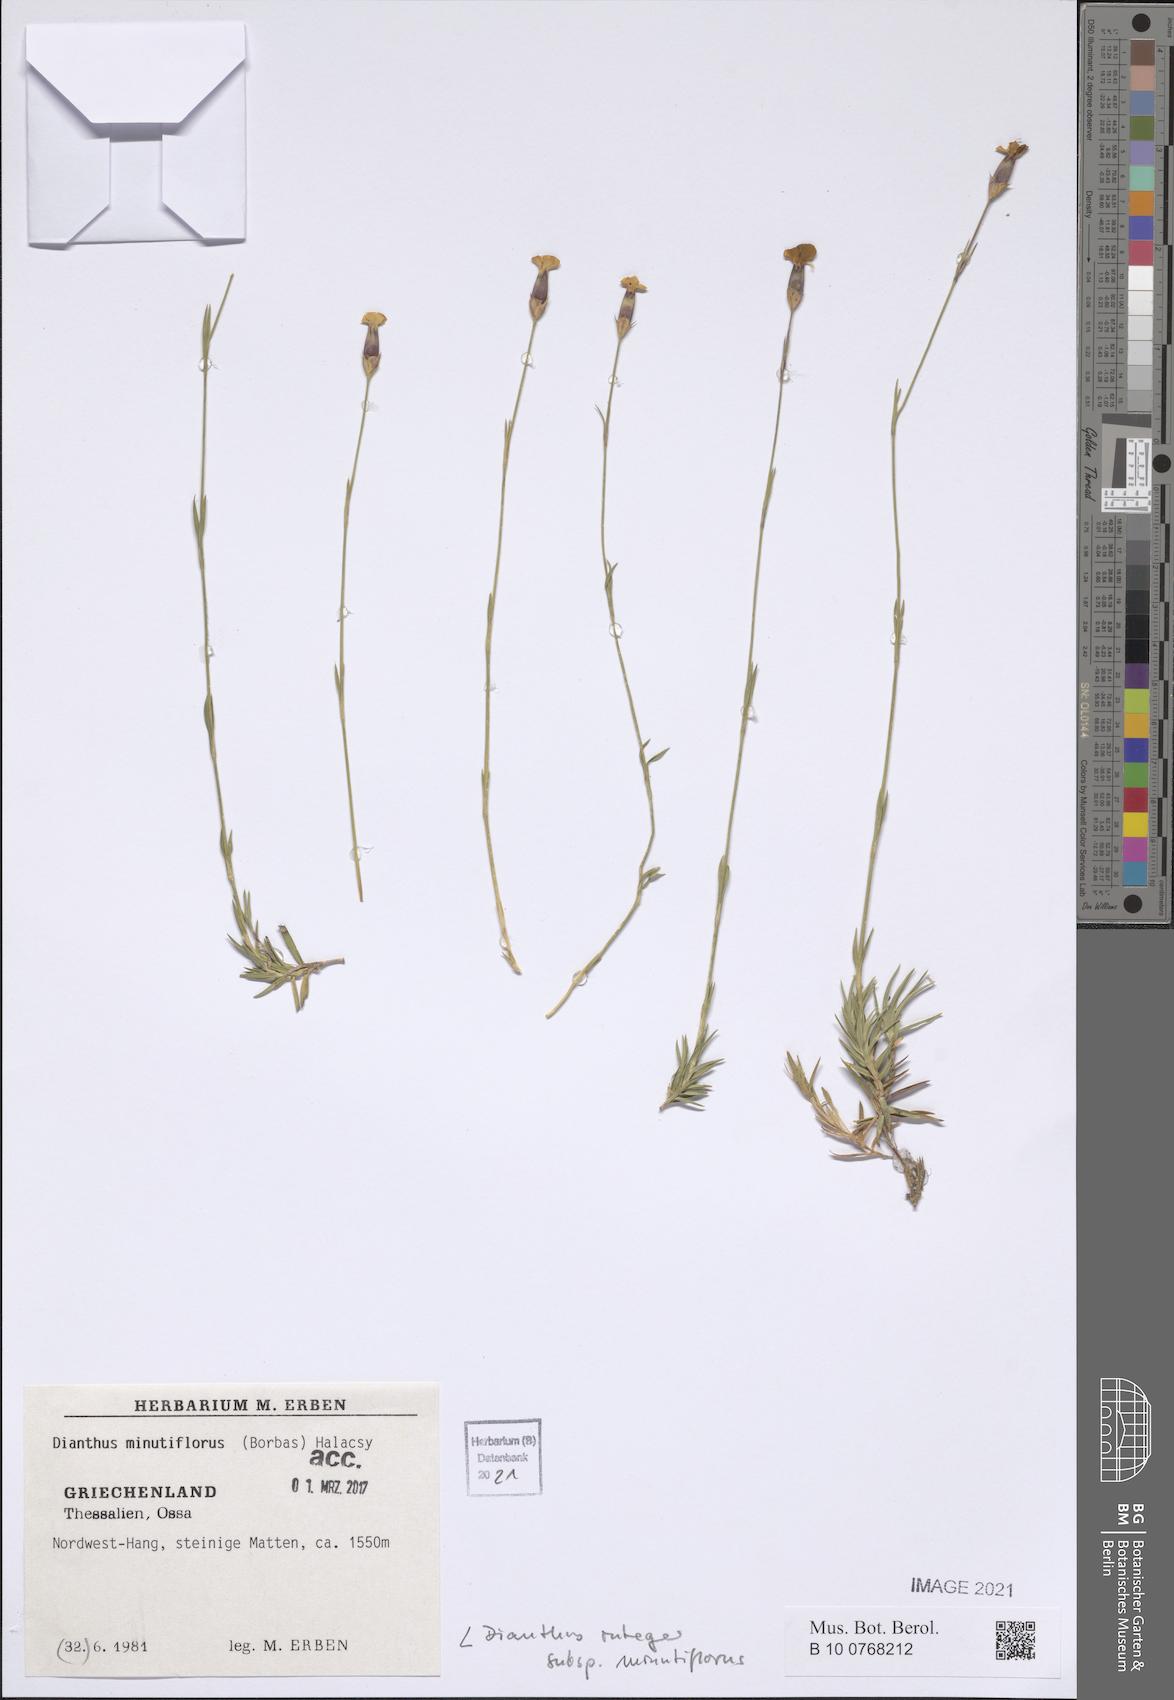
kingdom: Plantae
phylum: Tracheophyta
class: Magnoliopsida
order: Caryophyllales
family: Caryophyllaceae
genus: Dianthus
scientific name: Dianthus integer
